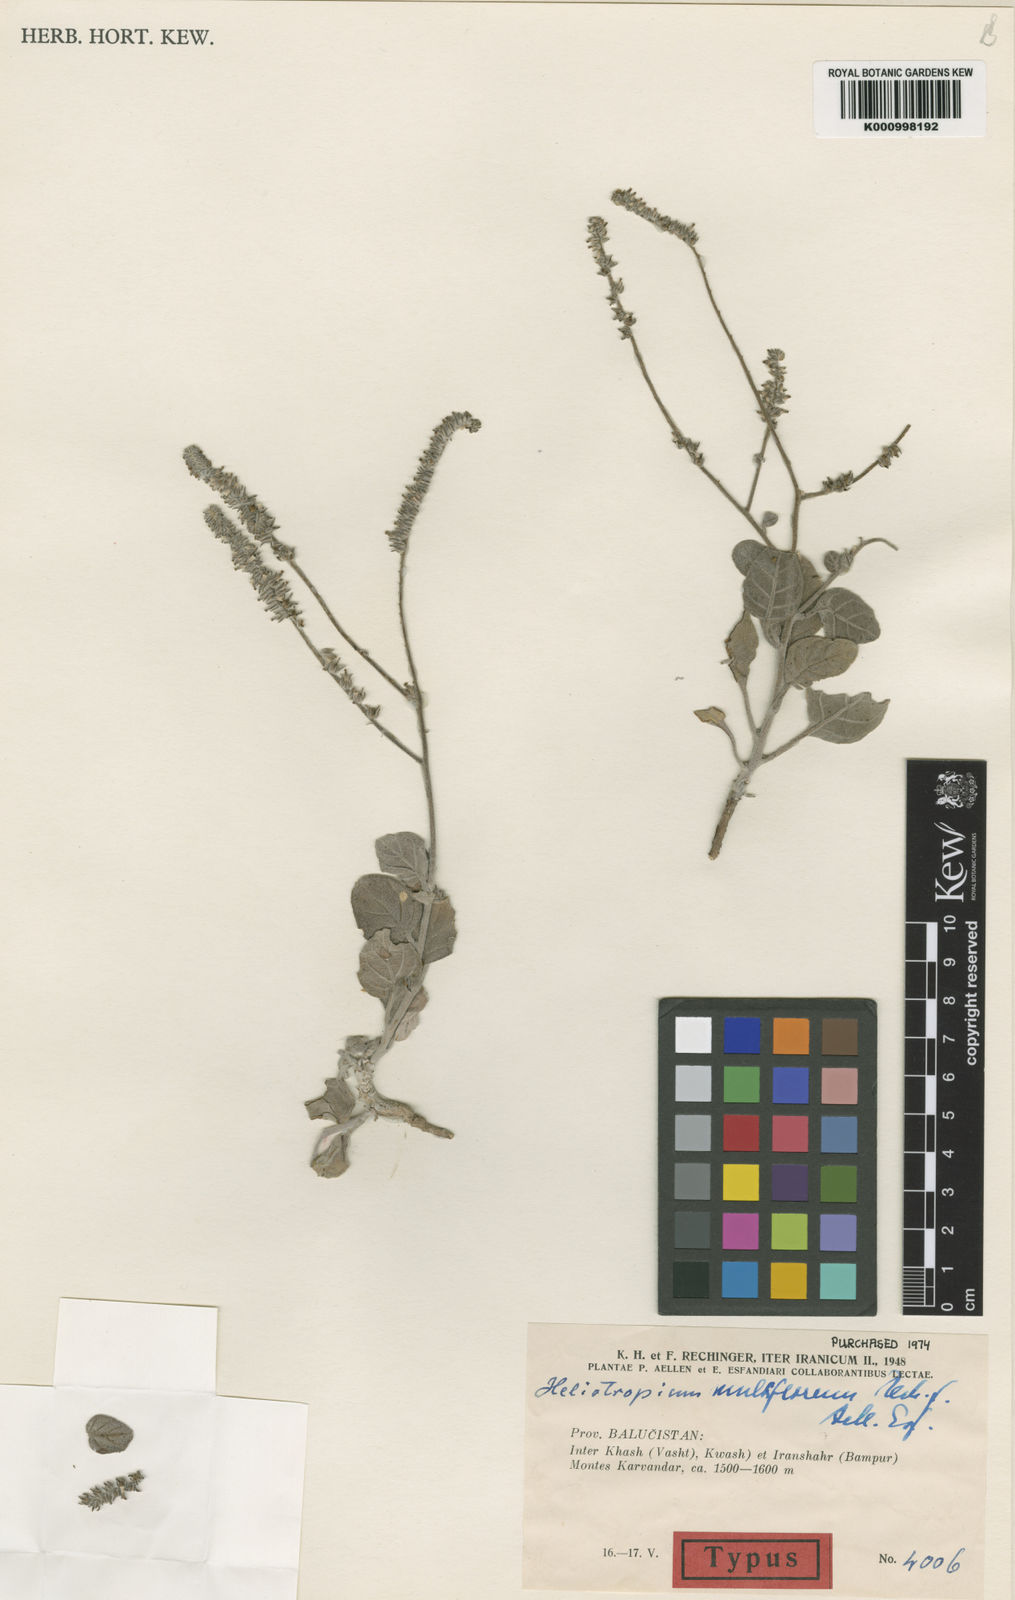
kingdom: Plantae
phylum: Tracheophyta
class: Magnoliopsida
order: Boraginales
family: Heliotropiaceae
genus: Heliotropium
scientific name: Heliotropium multiflorum
